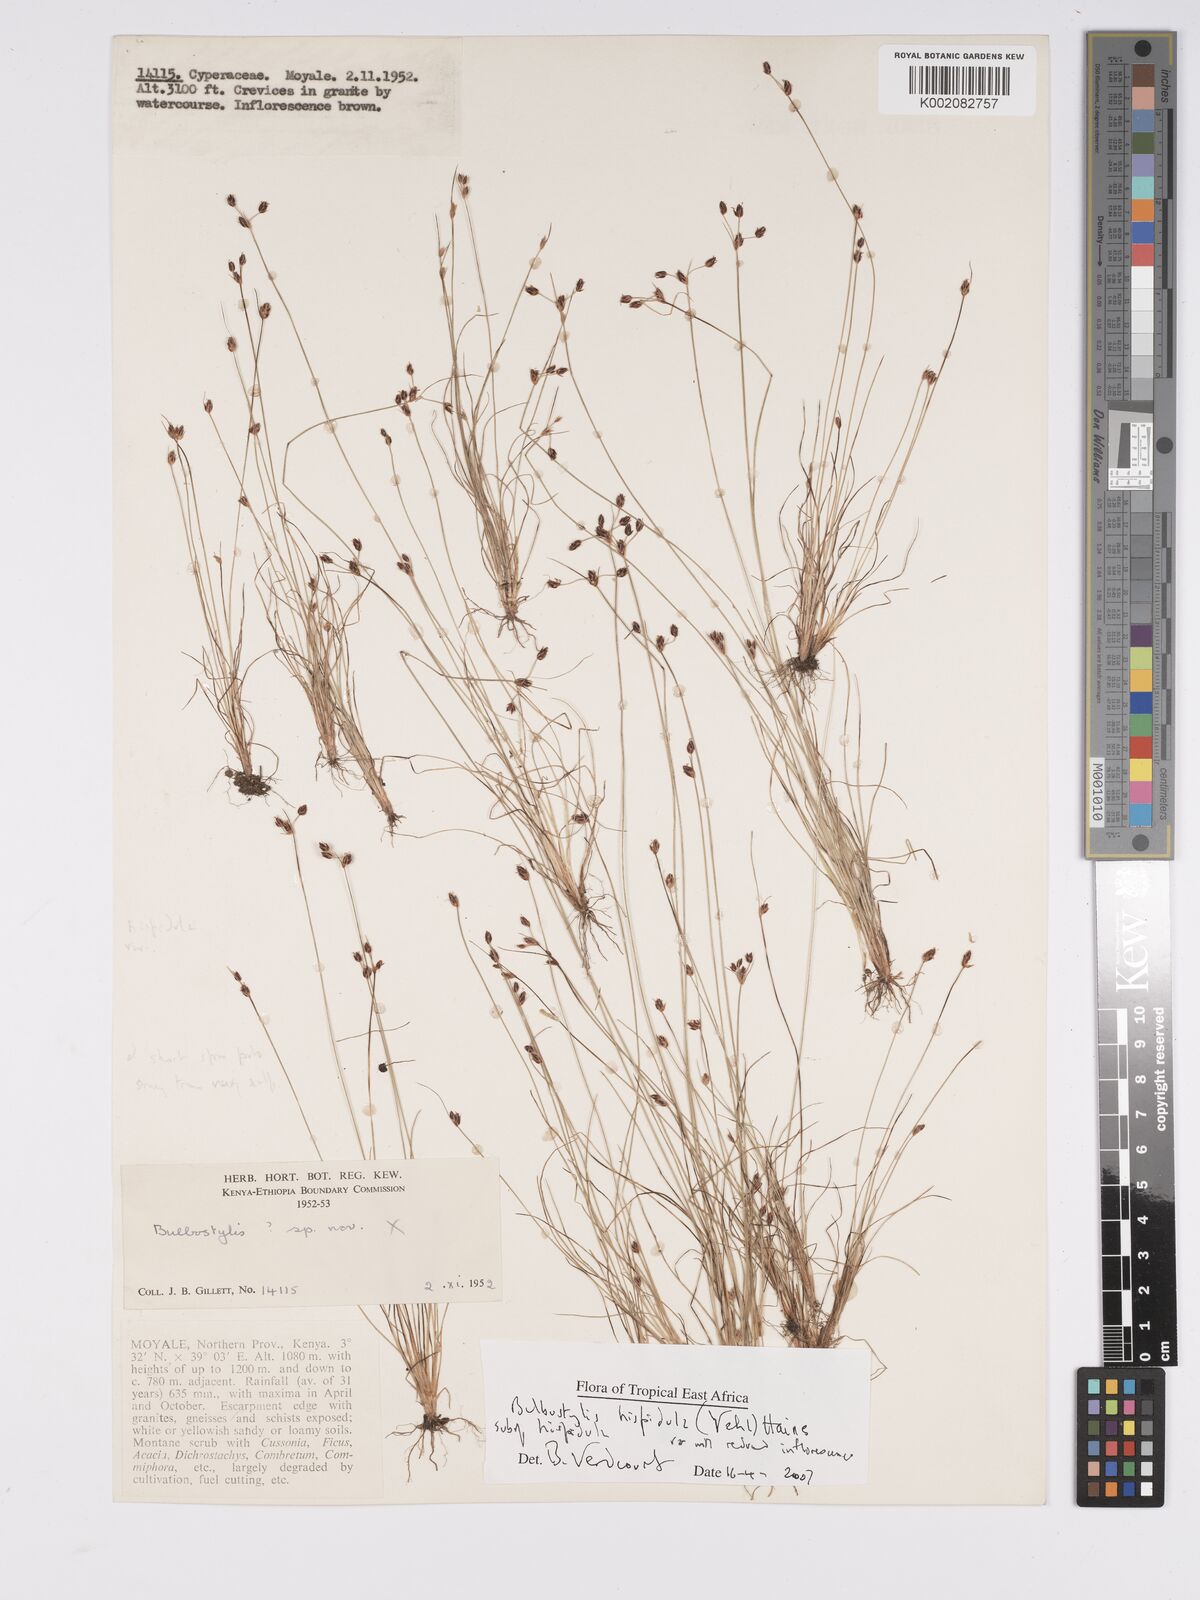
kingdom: Plantae
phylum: Tracheophyta
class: Liliopsida
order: Poales
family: Cyperaceae
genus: Bulbostylis
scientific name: Bulbostylis hispidula
